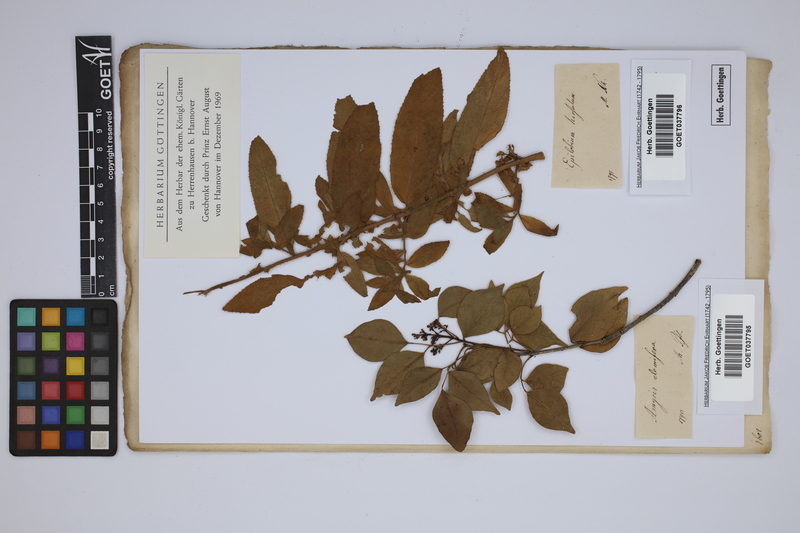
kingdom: Plantae
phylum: Tracheophyta
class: Magnoliopsida
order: Myrtales
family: Onagraceae
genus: Epilobium
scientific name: Epilobium hirsutum
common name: Great willowherb
